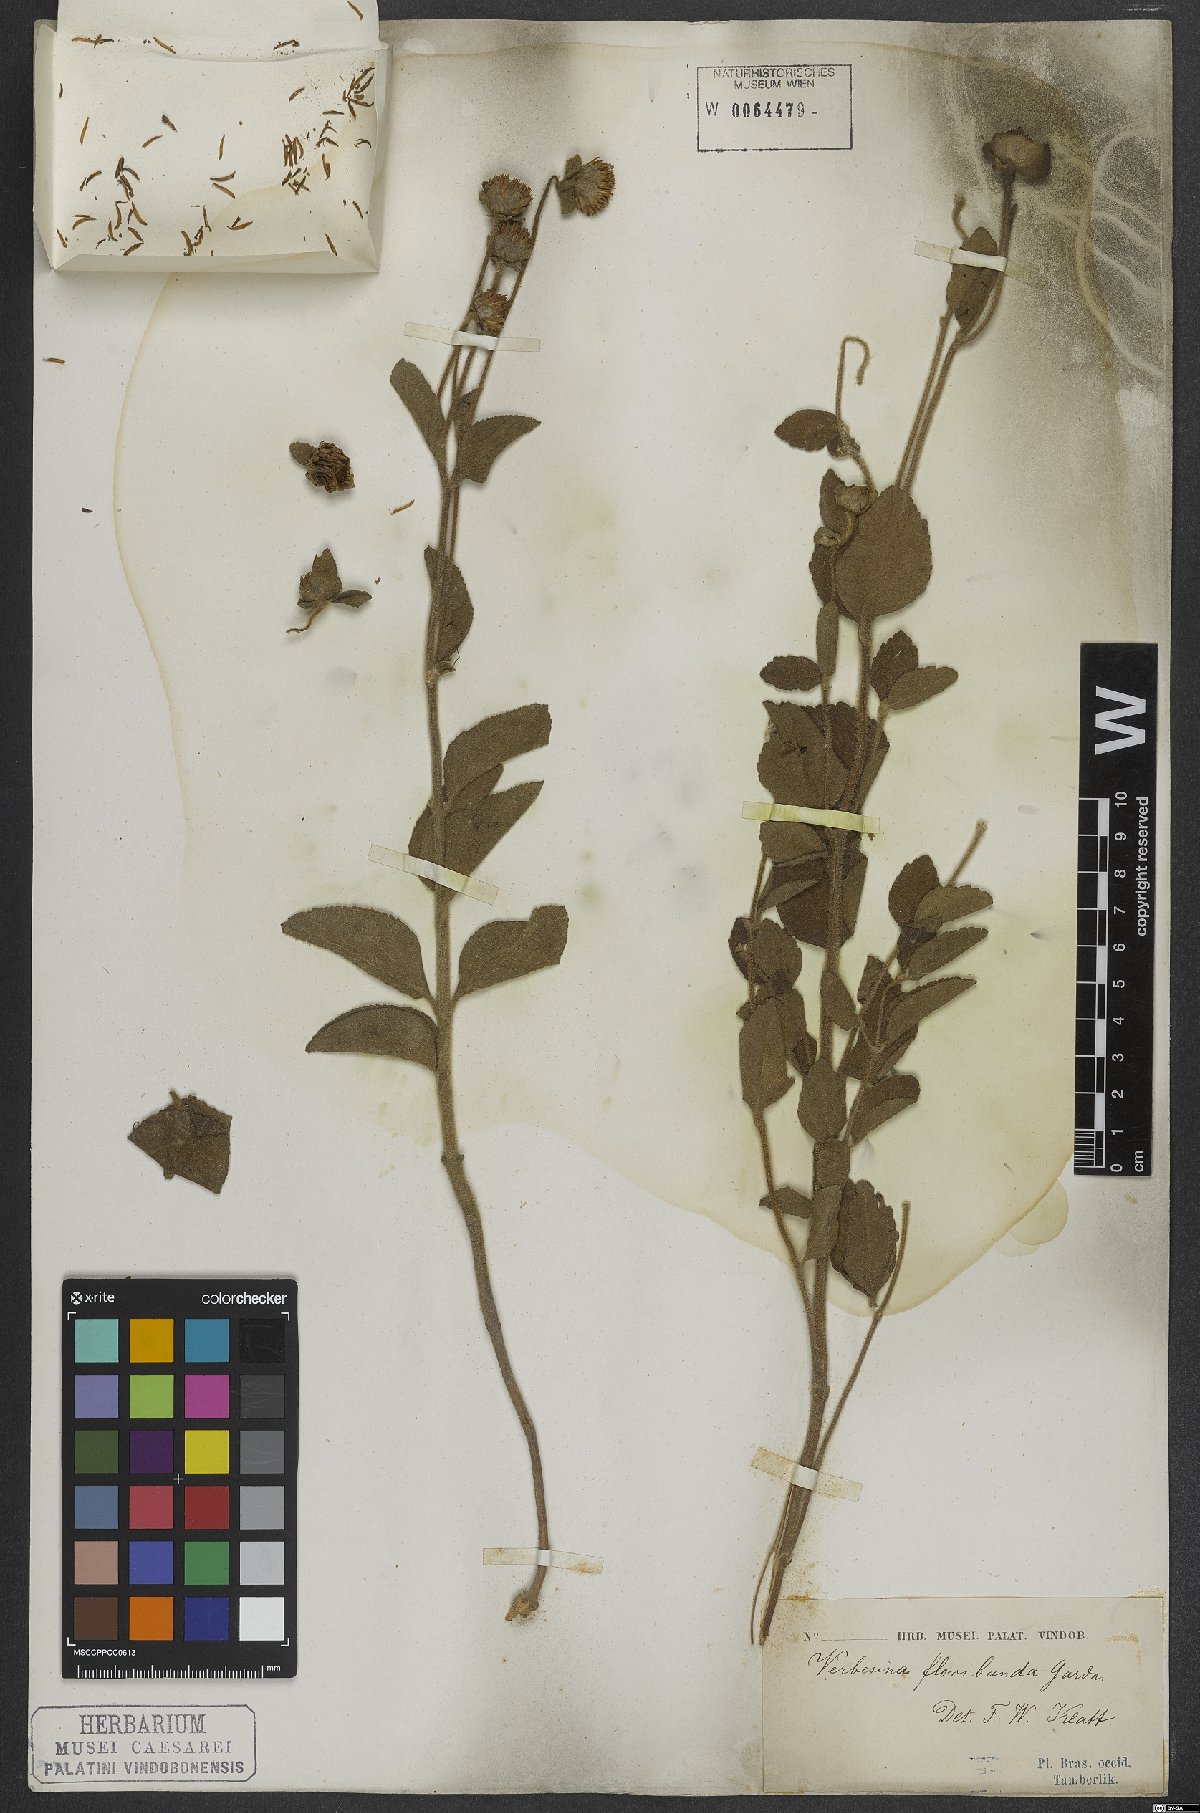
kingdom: Plantae
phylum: Tracheophyta
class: Magnoliopsida
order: Asterales
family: Asteraceae
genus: Critoniopsis
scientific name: Critoniopsis floribunda
